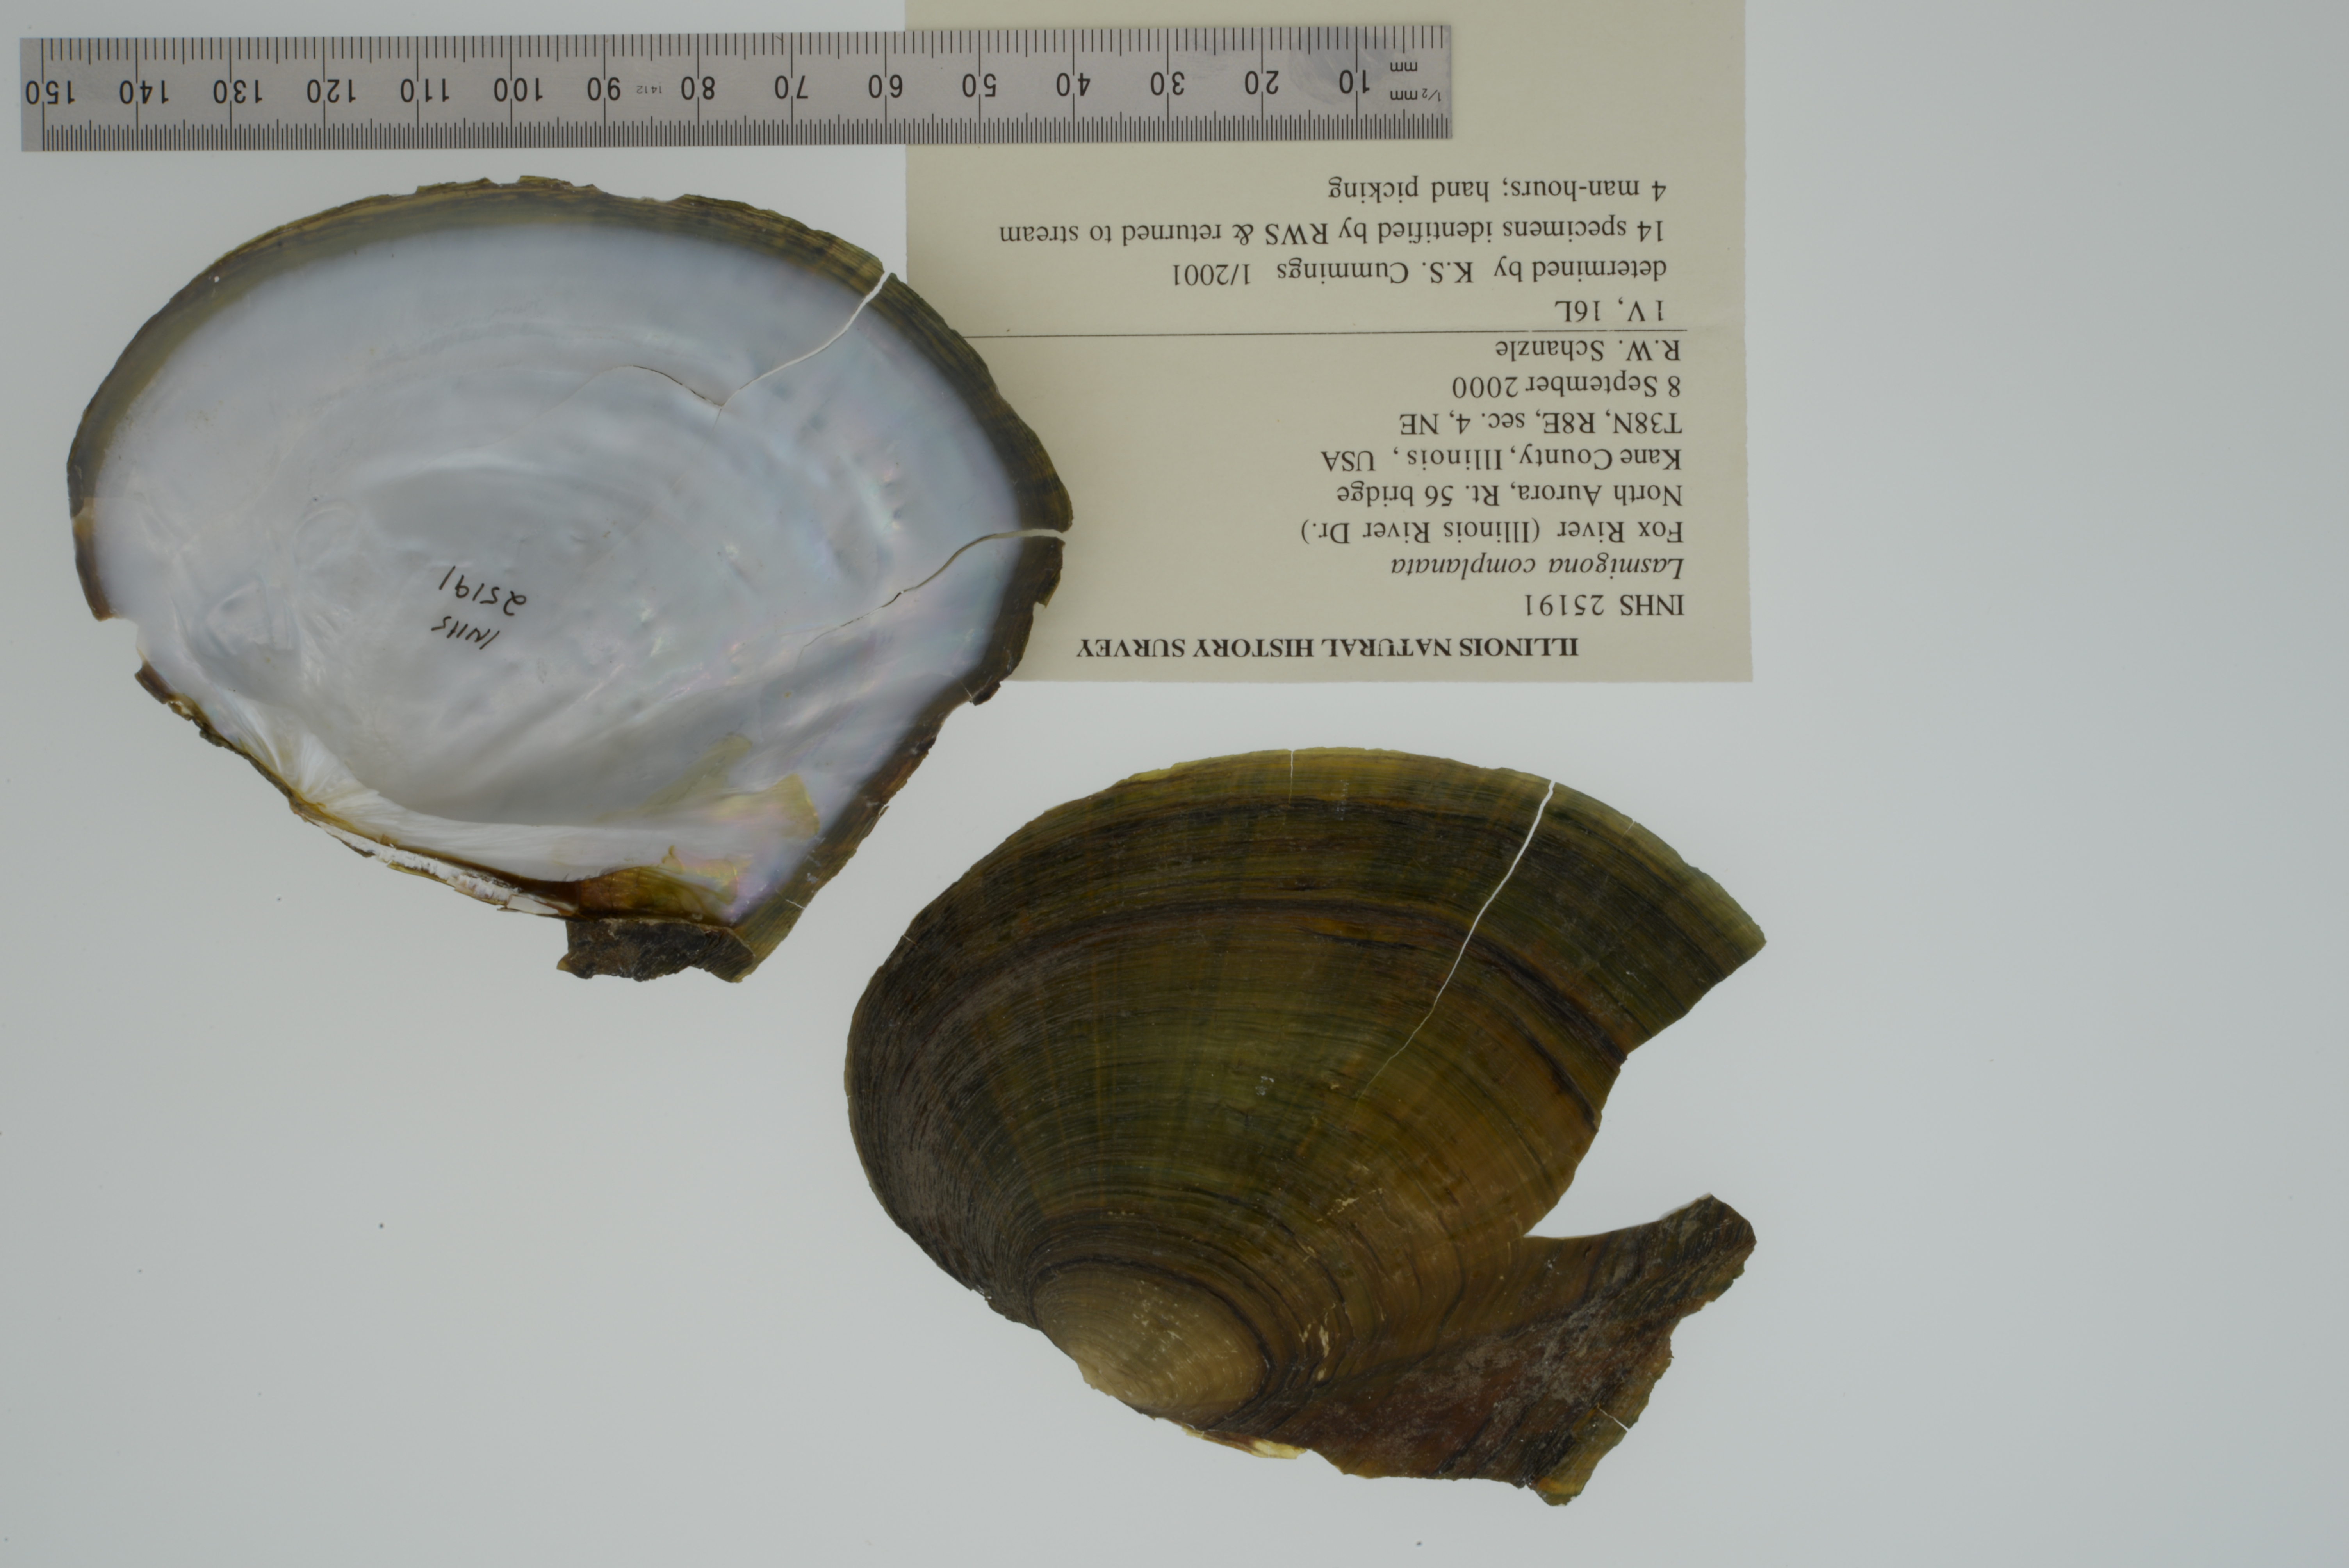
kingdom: Animalia
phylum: Mollusca
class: Bivalvia
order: Unionida
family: Unionidae
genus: Lasmigona
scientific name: Lasmigona complanata
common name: White heelsplitter
